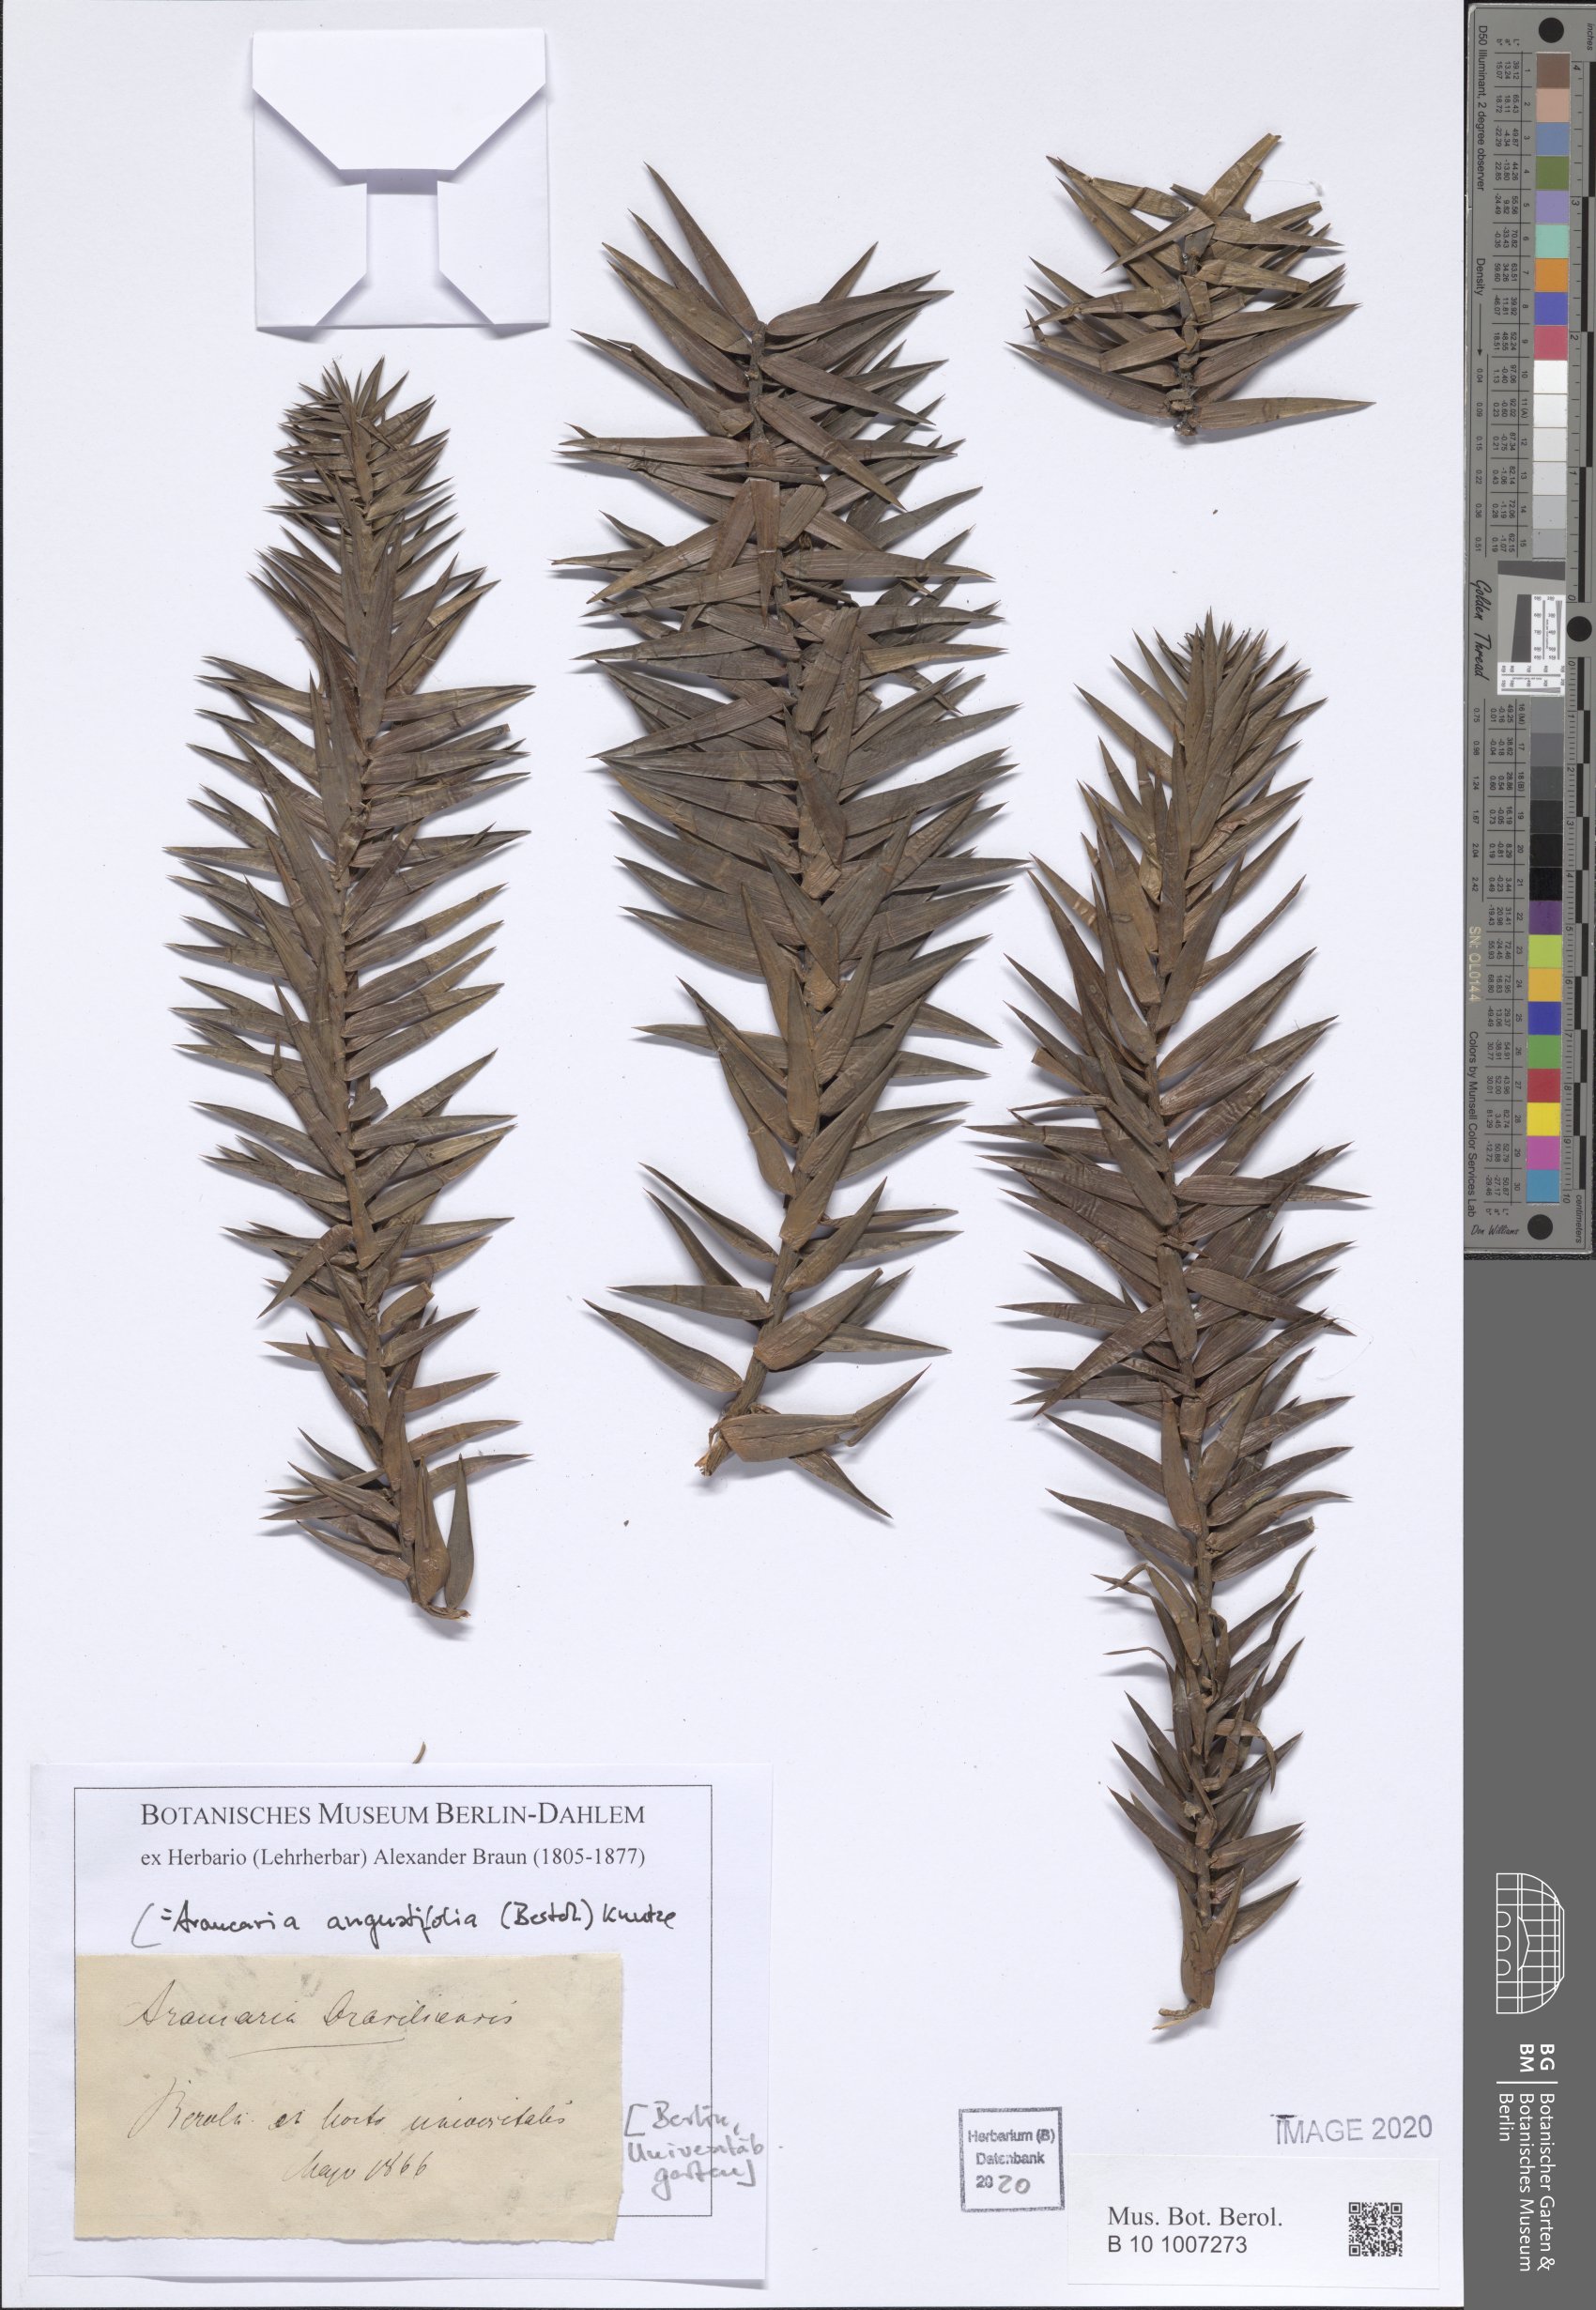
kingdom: Plantae
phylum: Tracheophyta
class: Pinopsida
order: Pinales
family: Araucariaceae
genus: Araucaria
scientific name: Araucaria angustifolia
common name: Candelabra tree
